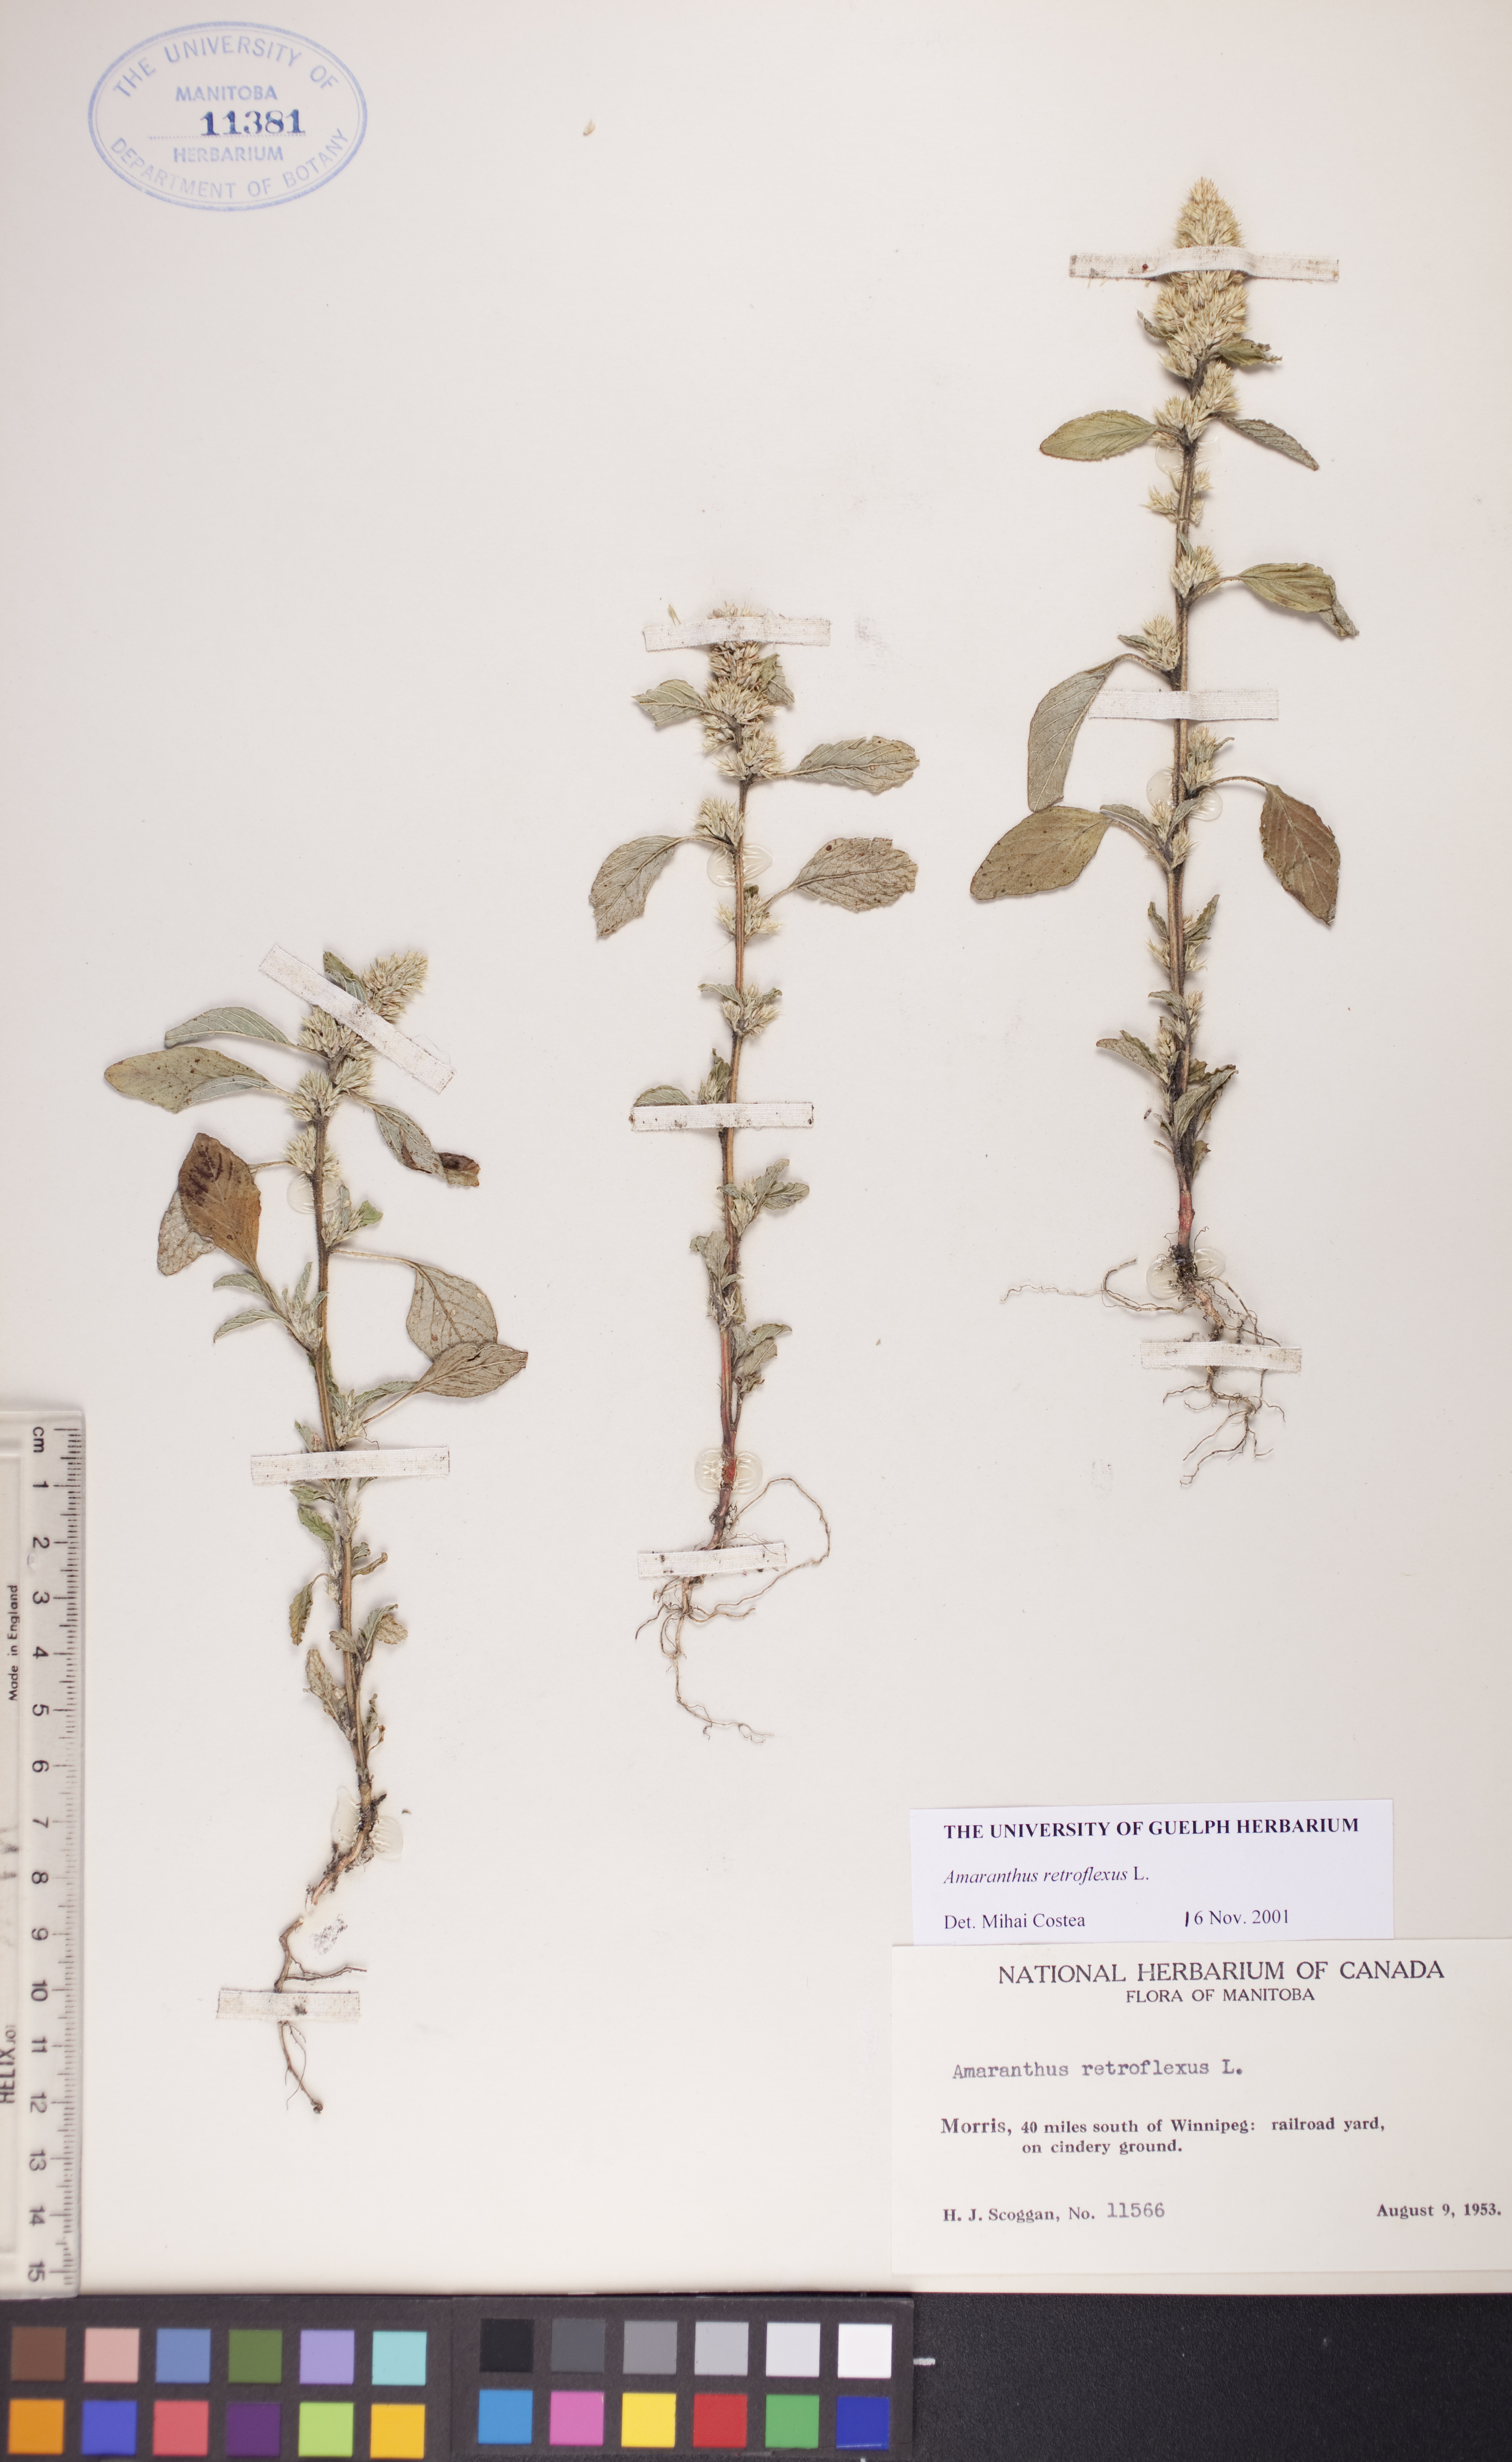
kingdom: Plantae
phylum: Tracheophyta
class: Magnoliopsida
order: Caryophyllales
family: Amaranthaceae
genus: Amaranthus
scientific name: Amaranthus retroflexus
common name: Redroot amaranth
